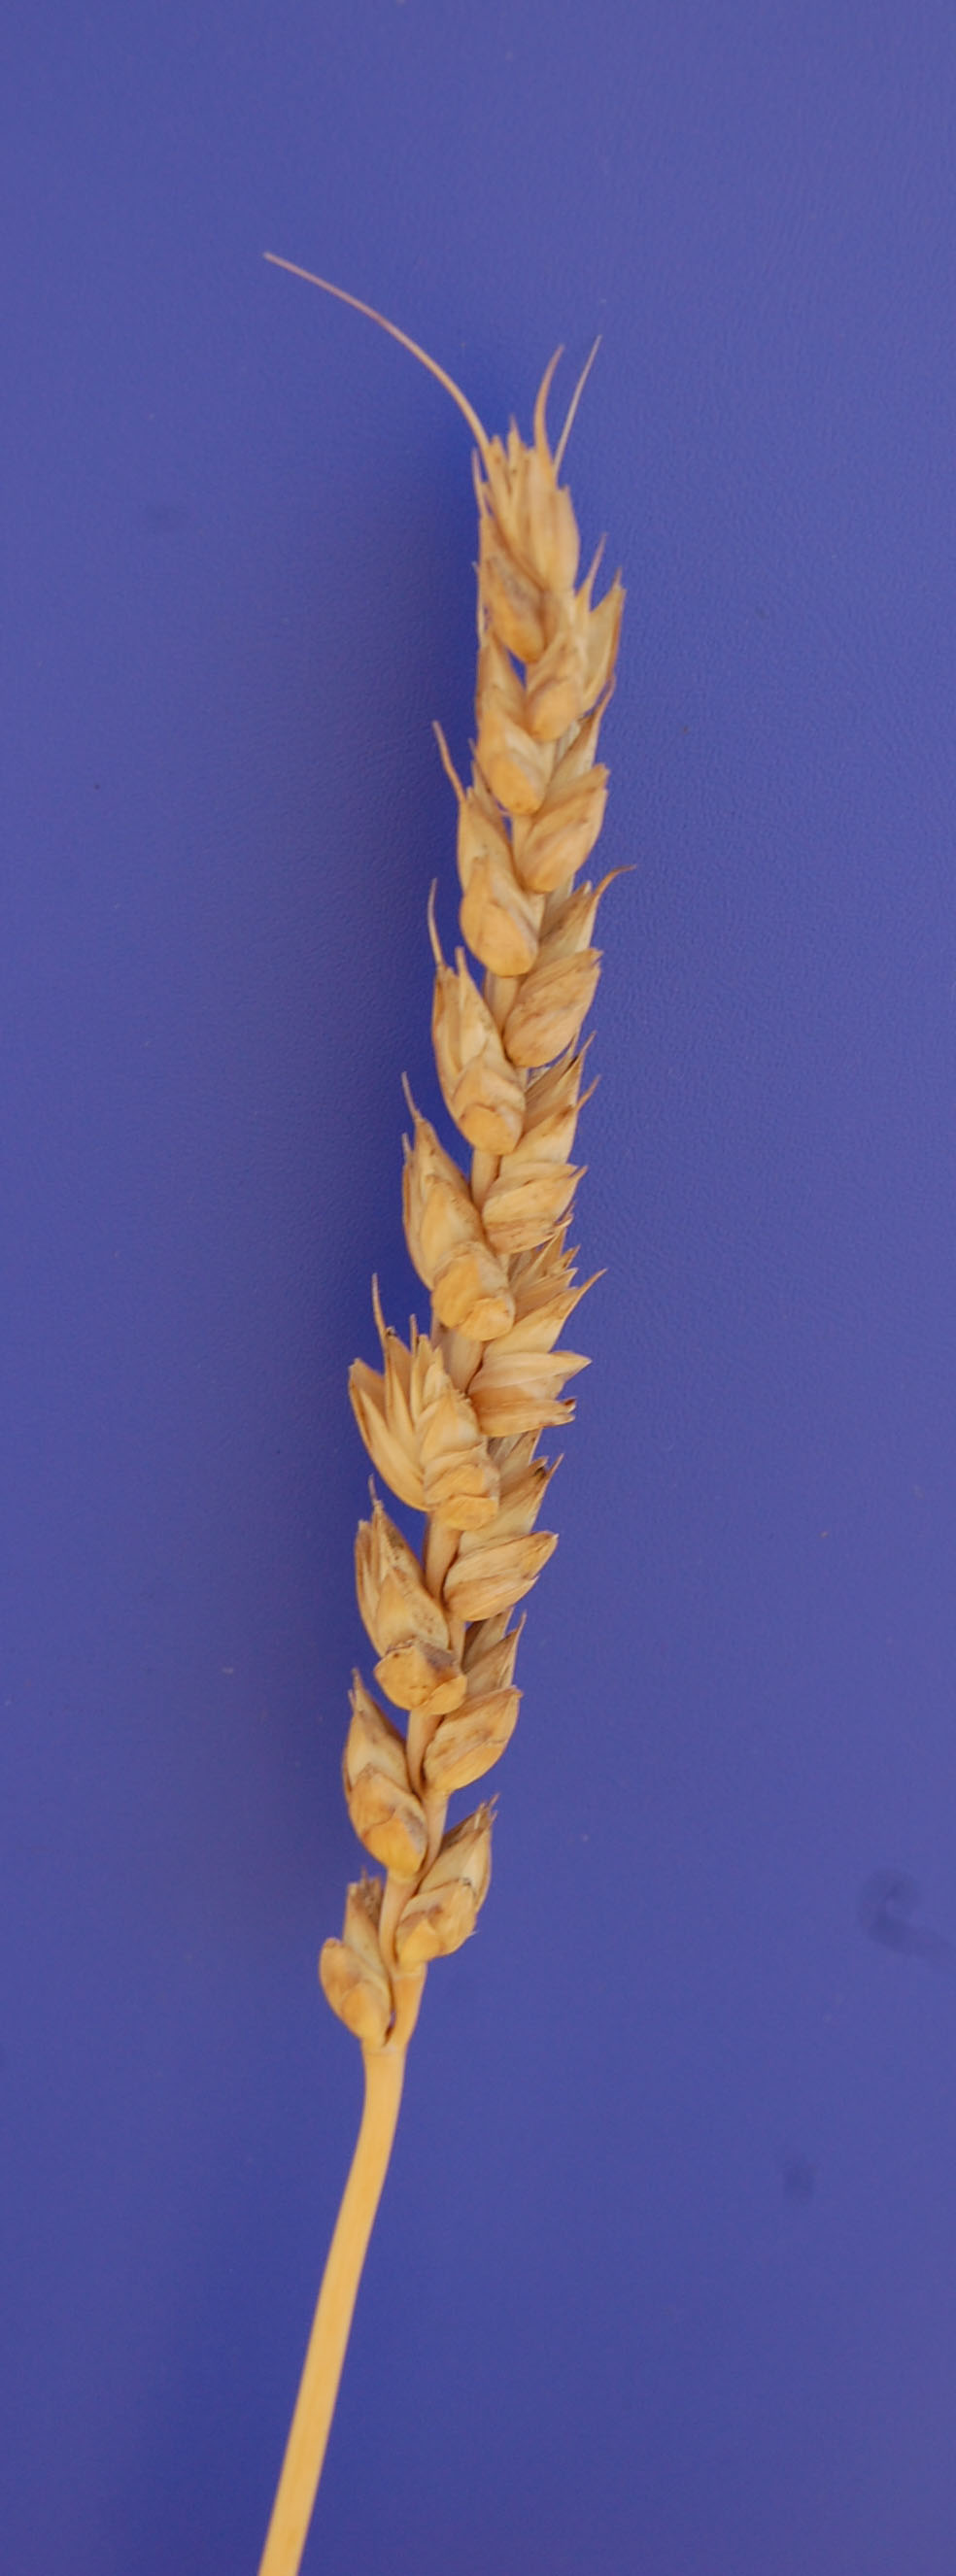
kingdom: Plantae
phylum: Tracheophyta
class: Liliopsida
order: Poales
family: Poaceae
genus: Triticum
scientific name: Triticum aestivum
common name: Common wheat
